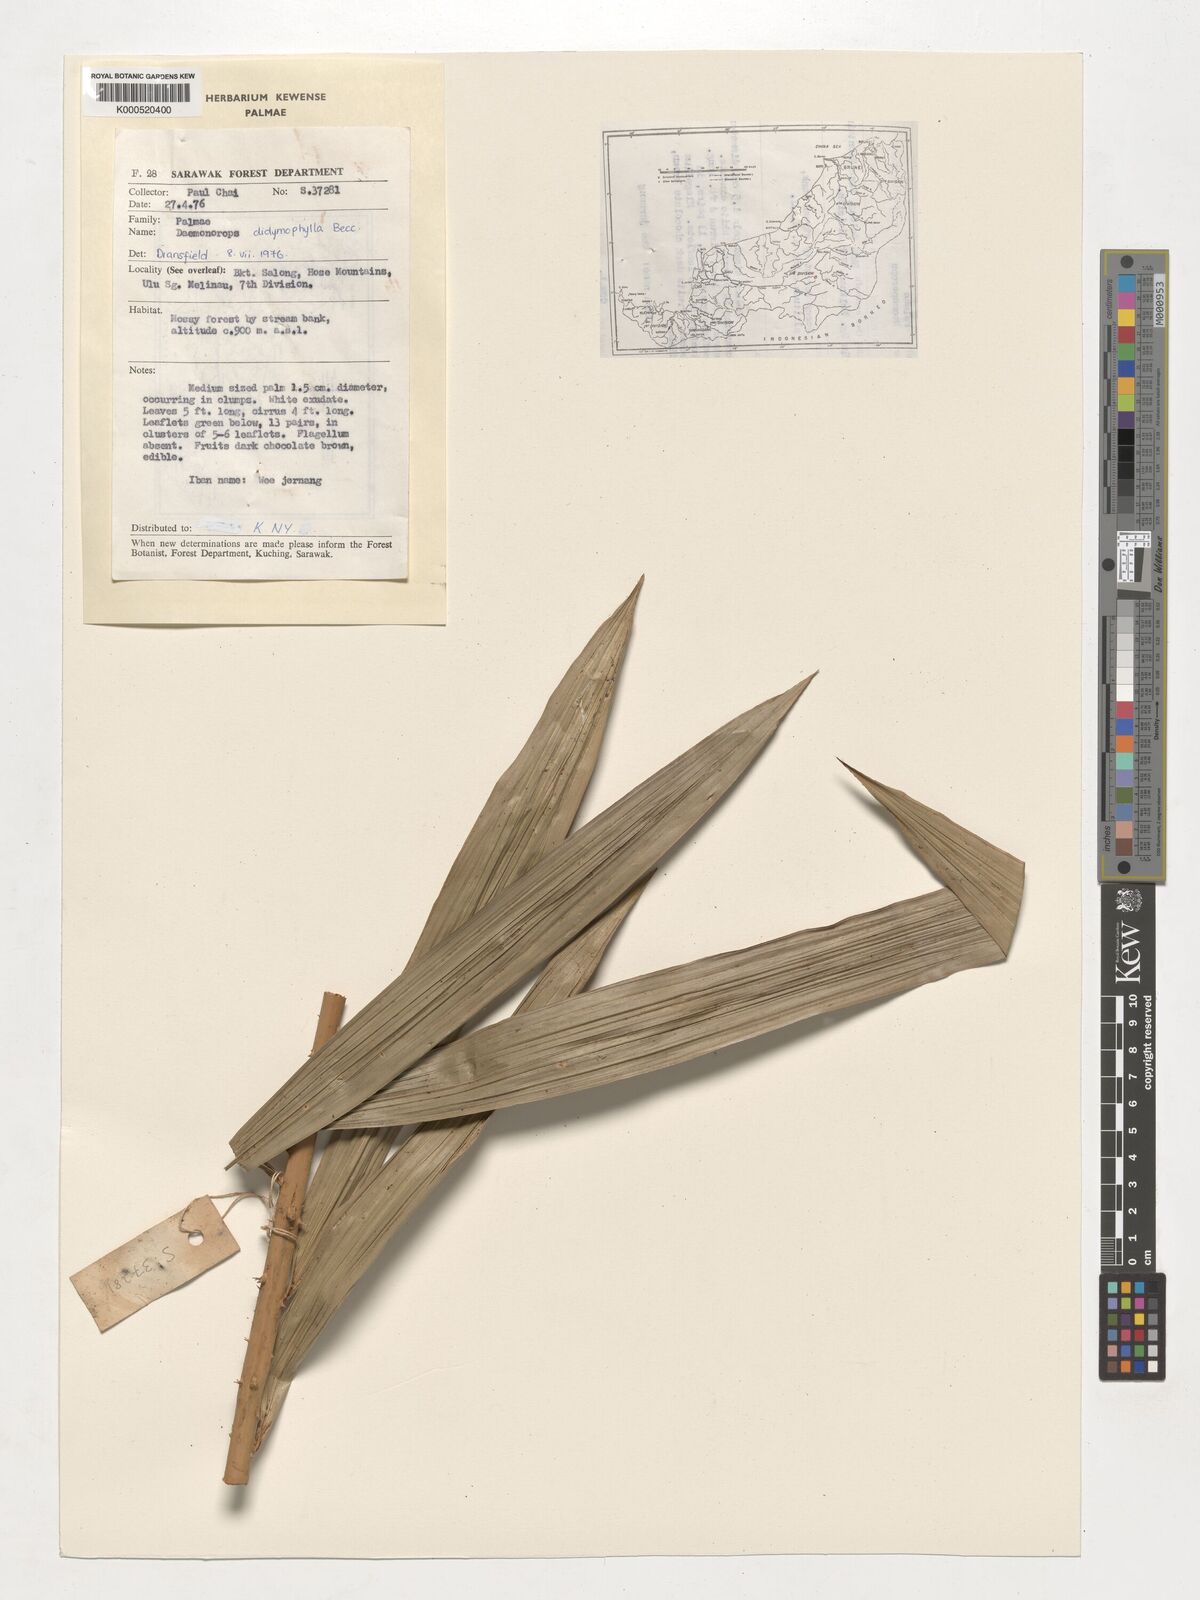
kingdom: Plantae
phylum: Tracheophyta
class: Liliopsida
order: Arecales
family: Arecaceae
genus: Calamus
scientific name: Calamus gracilipes
